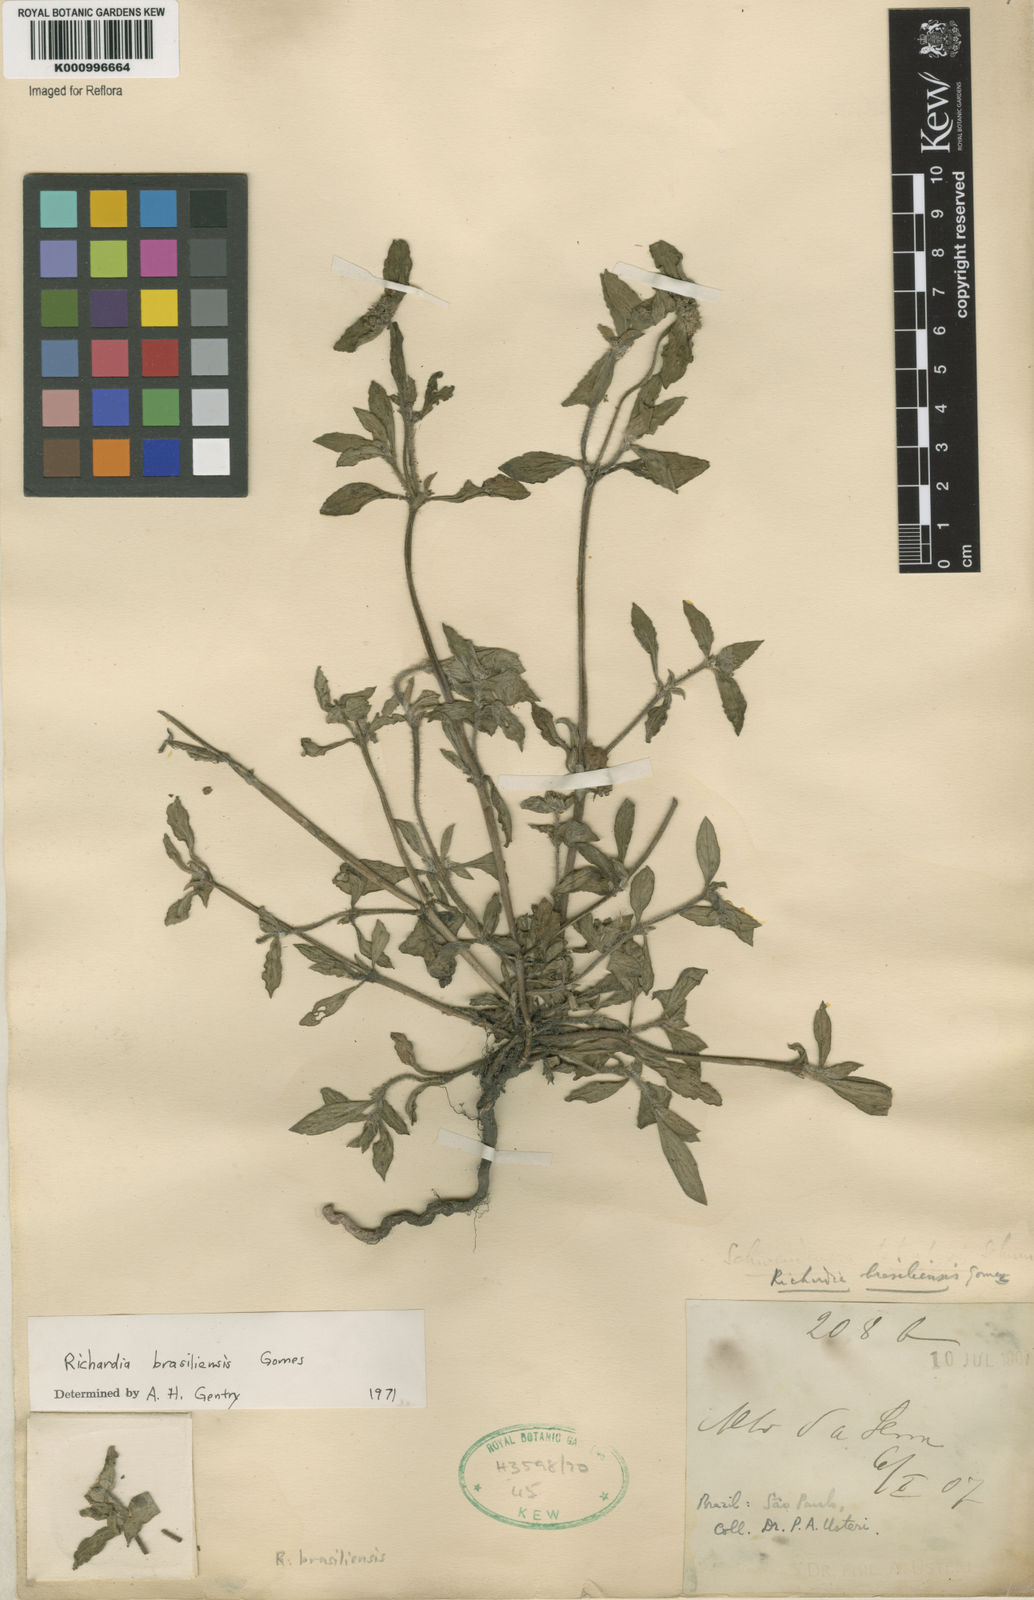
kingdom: Plantae
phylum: Tracheophyta
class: Magnoliopsida
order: Gentianales
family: Rubiaceae
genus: Richardia
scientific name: Richardia brasiliensis
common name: Tropical mexican clover
